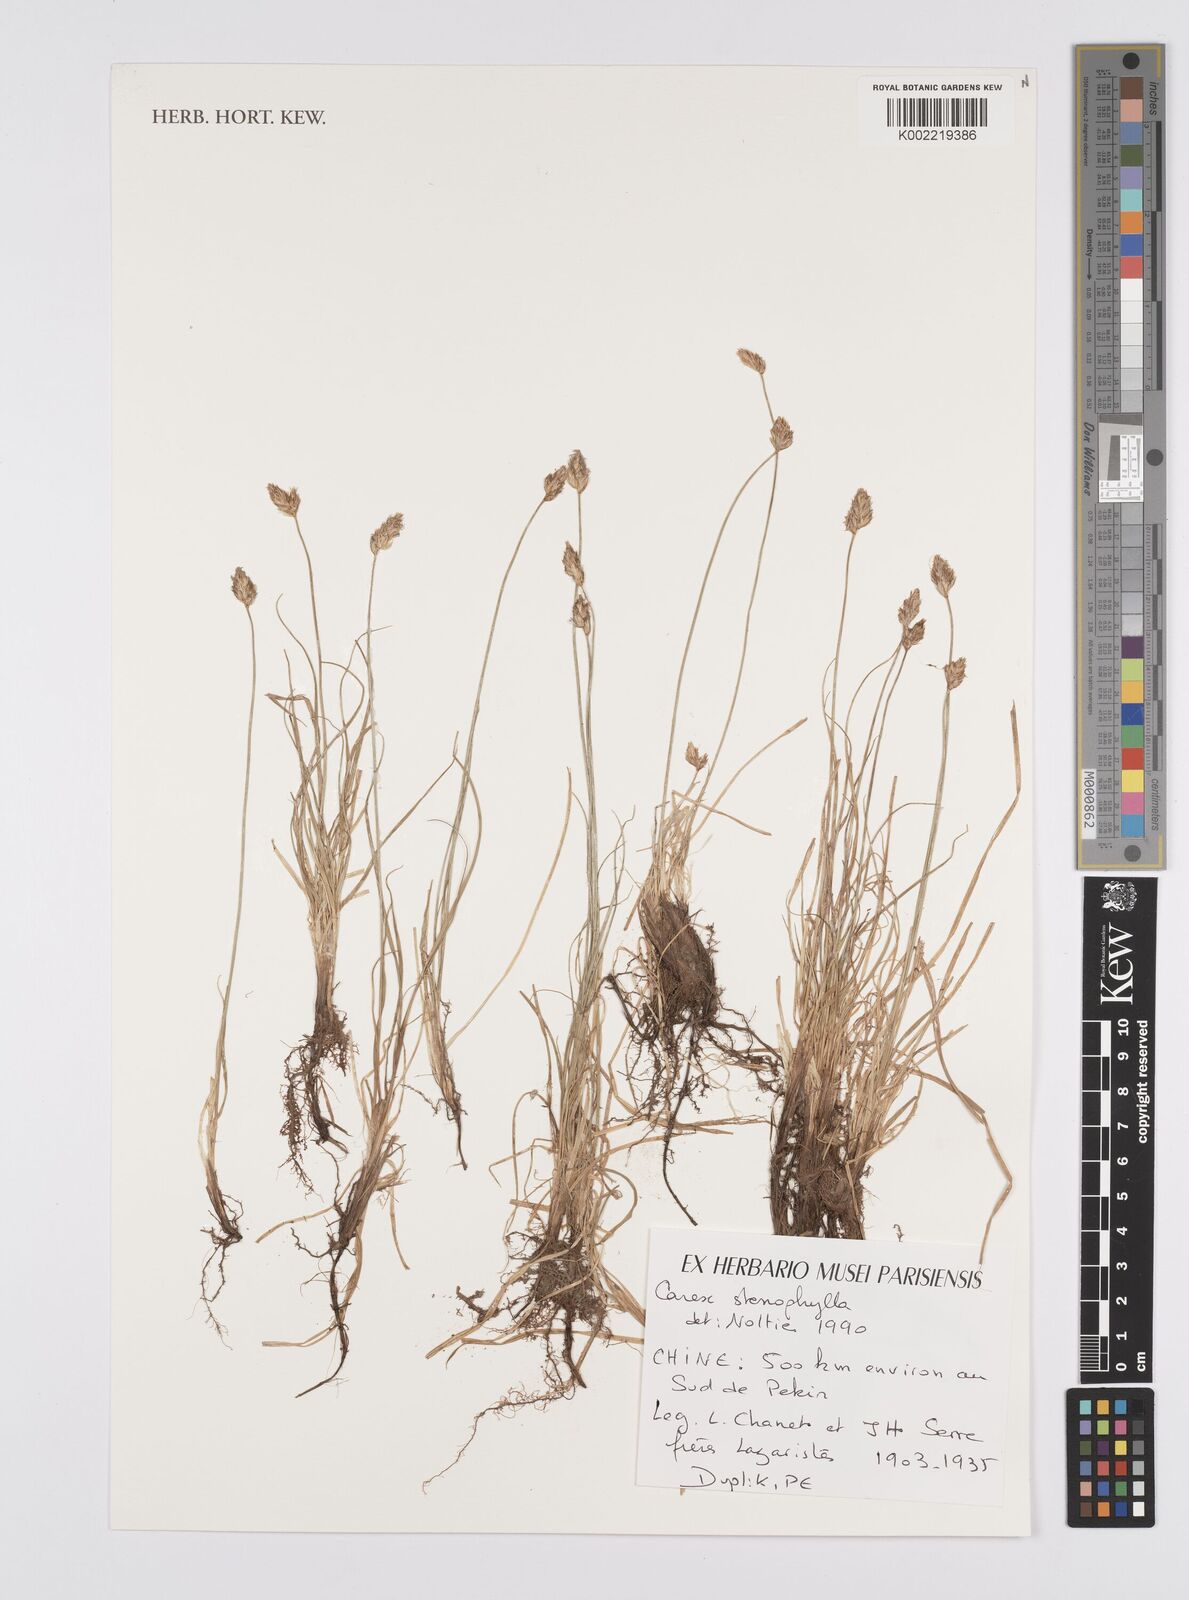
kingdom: Plantae
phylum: Tracheophyta
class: Liliopsida
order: Poales
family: Cyperaceae
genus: Carex
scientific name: Carex stenophylla
